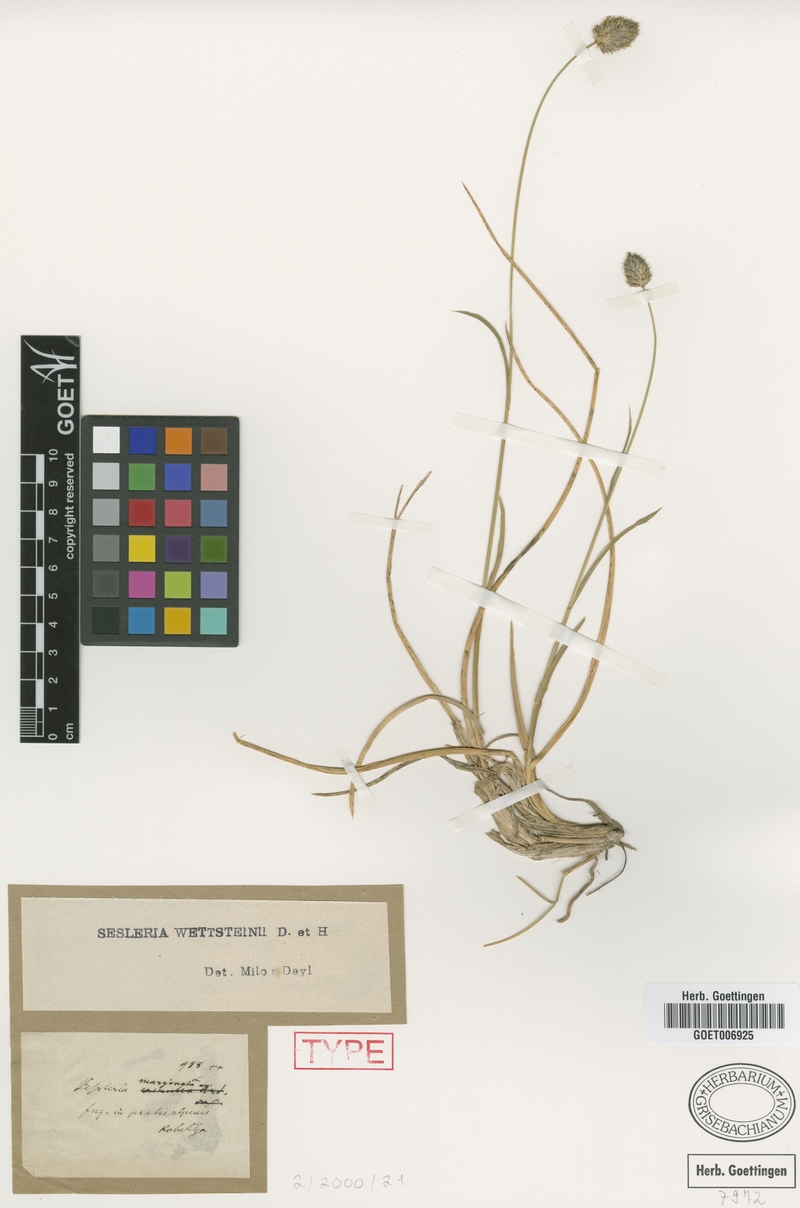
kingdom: Plantae
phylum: Tracheophyta
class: Liliopsida
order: Poales
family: Poaceae
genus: Sesleria
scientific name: Sesleria wettsteinii
